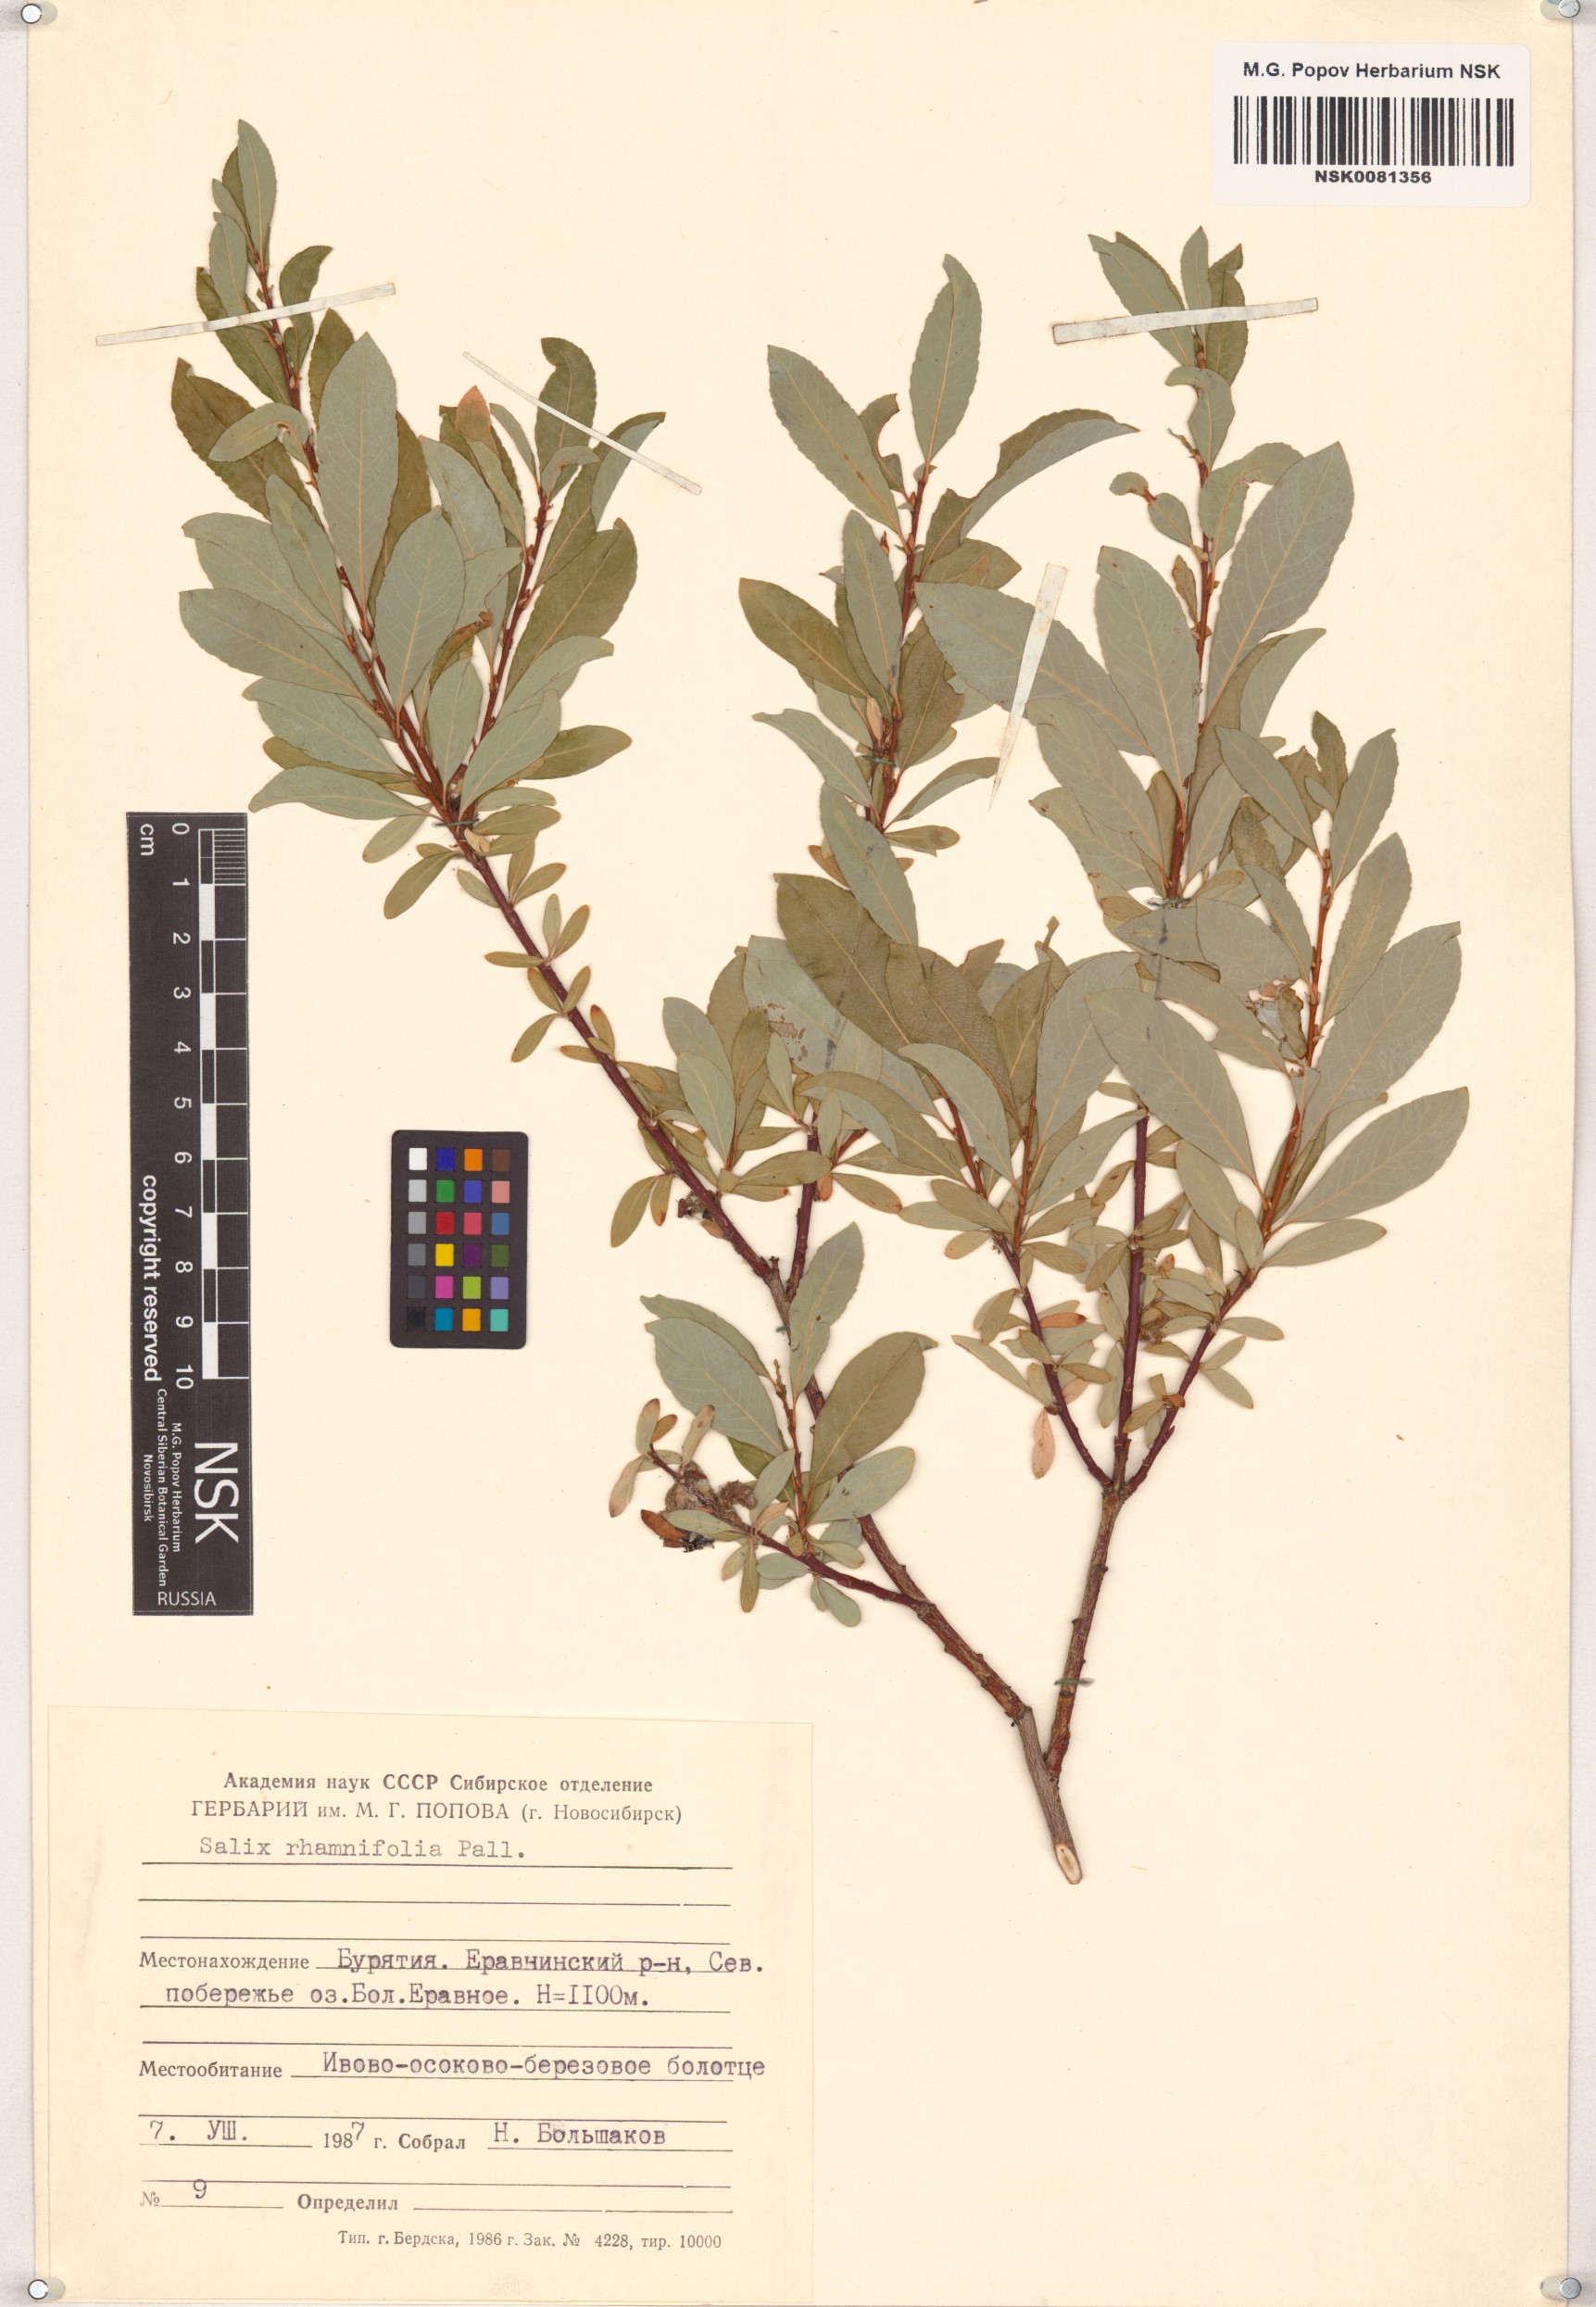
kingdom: Plantae
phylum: Tracheophyta
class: Magnoliopsida
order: Malpighiales
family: Salicaceae
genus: Salix
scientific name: Salix rhamnifolia
